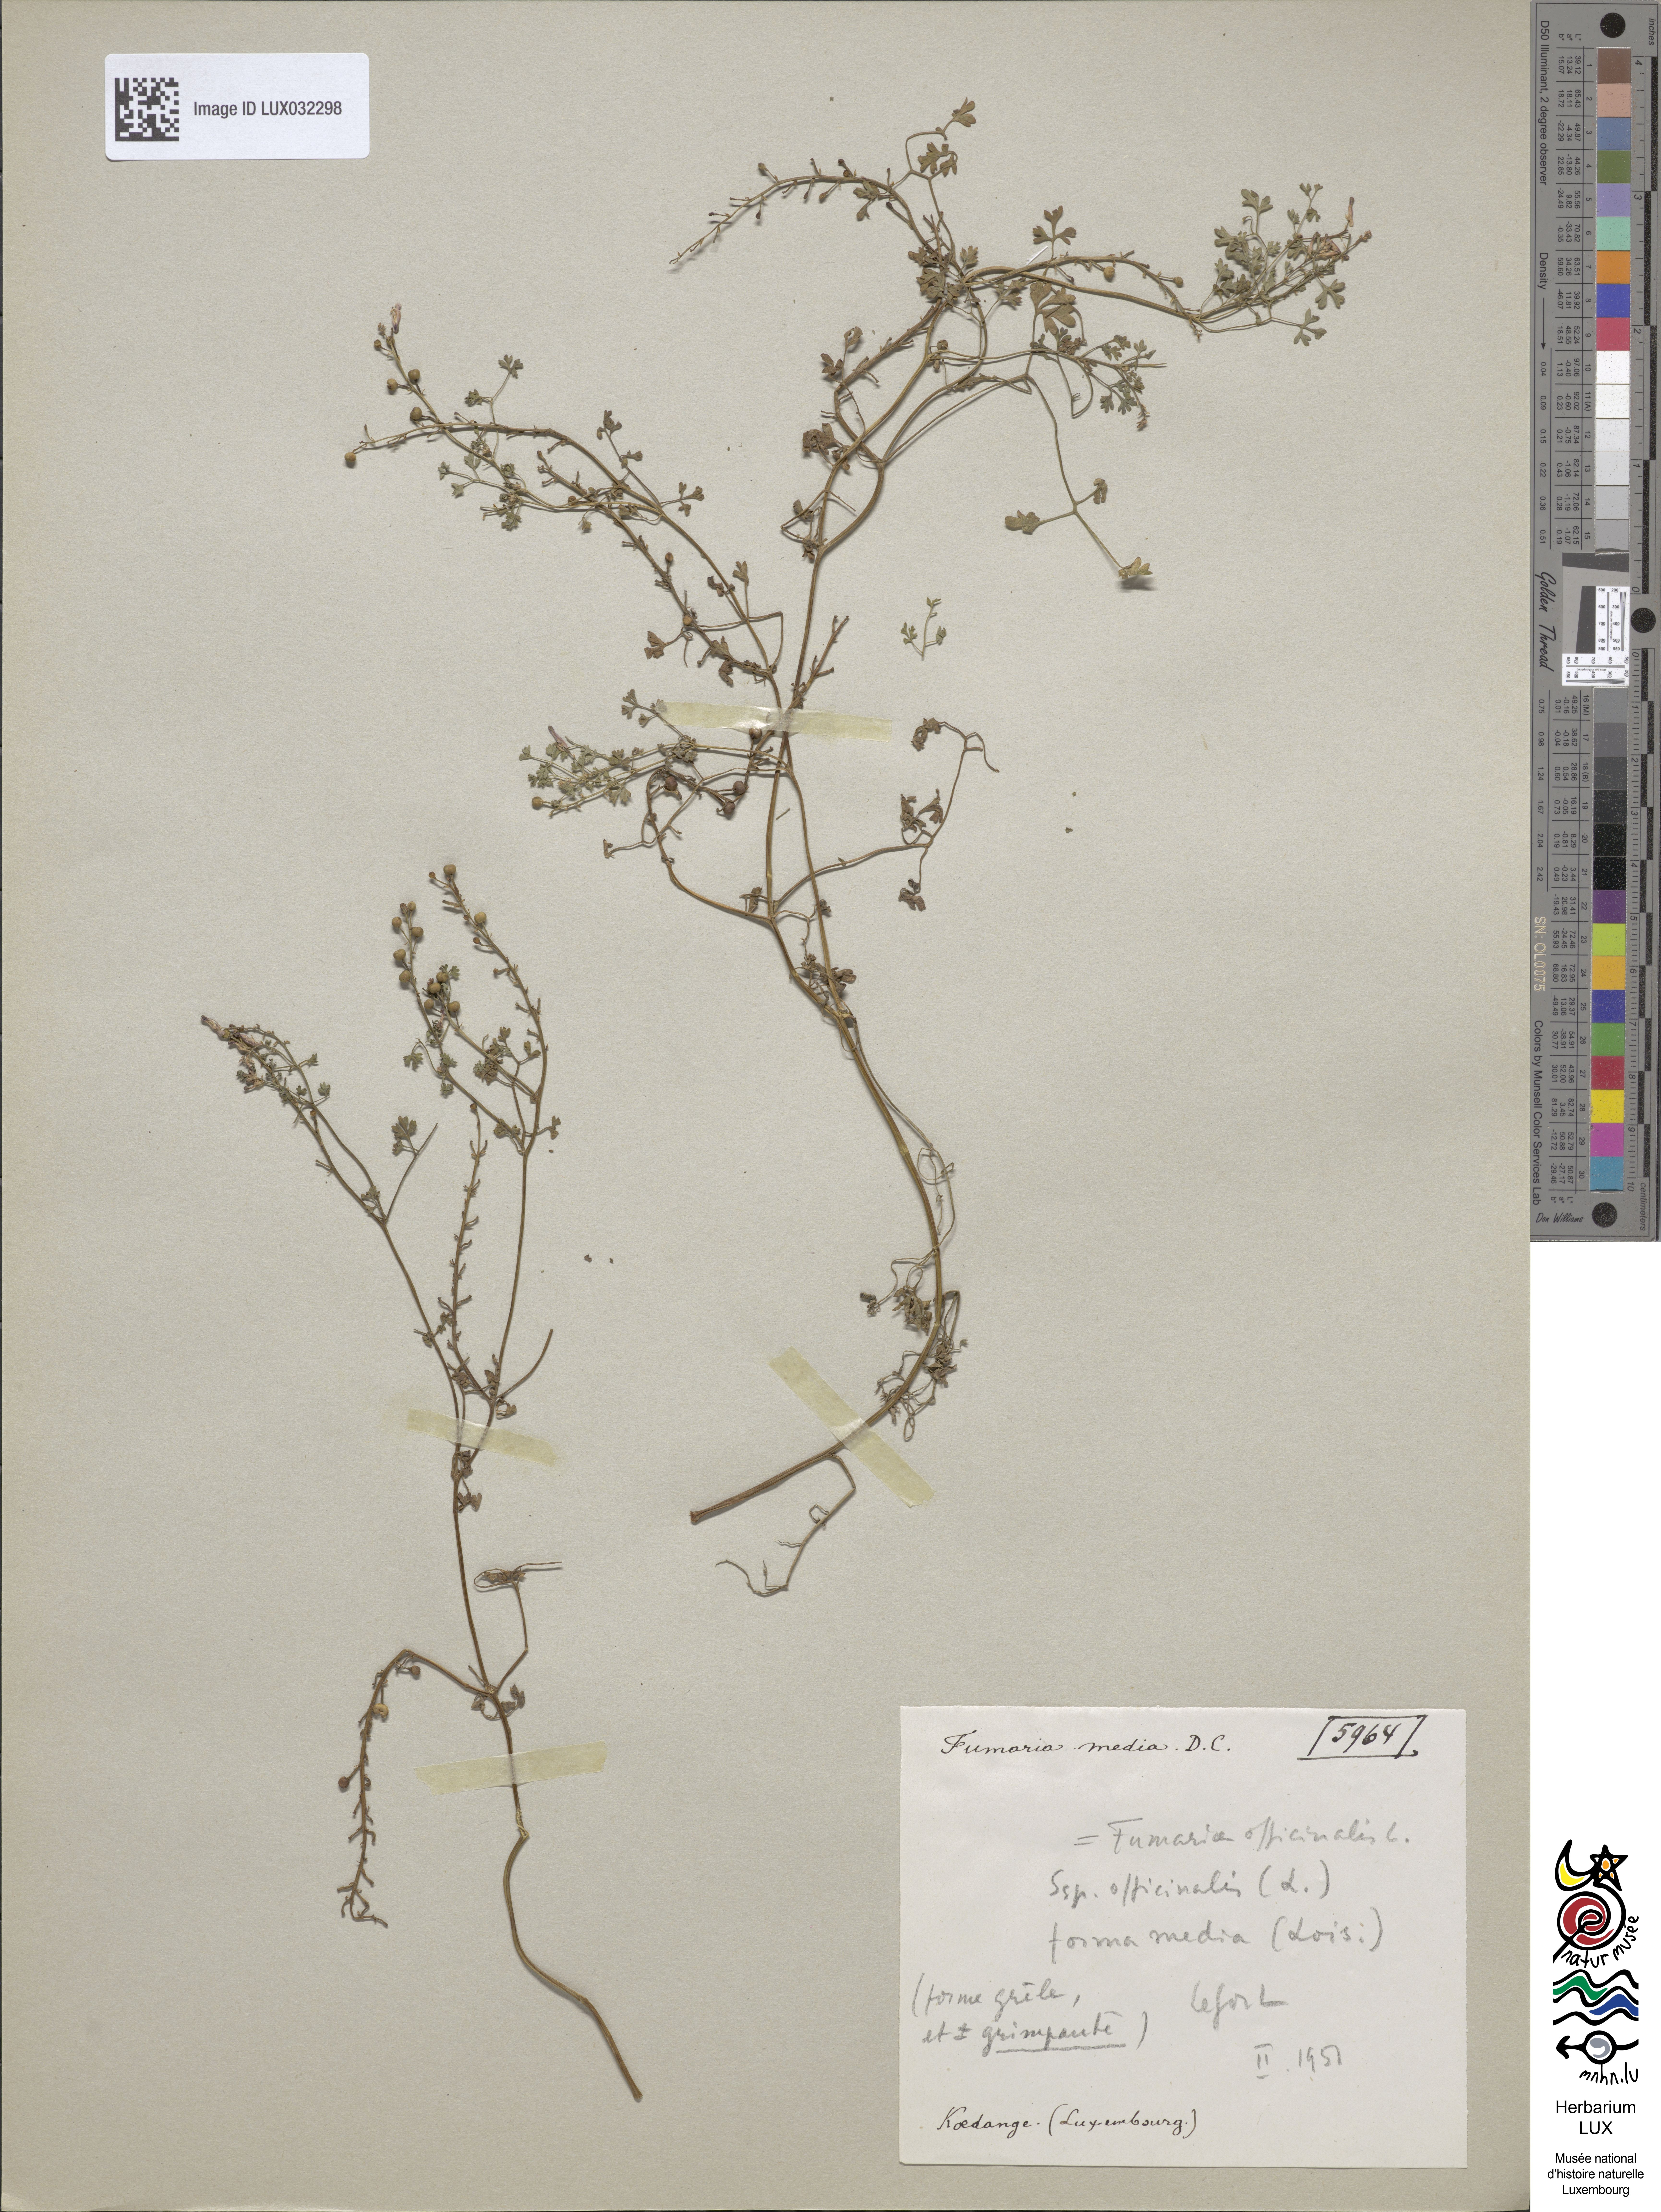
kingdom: Plantae
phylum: Tracheophyta
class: Magnoliopsida
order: Ranunculales
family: Papaveraceae
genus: Fumaria
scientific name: Fumaria officinalis
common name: Common fumitory
